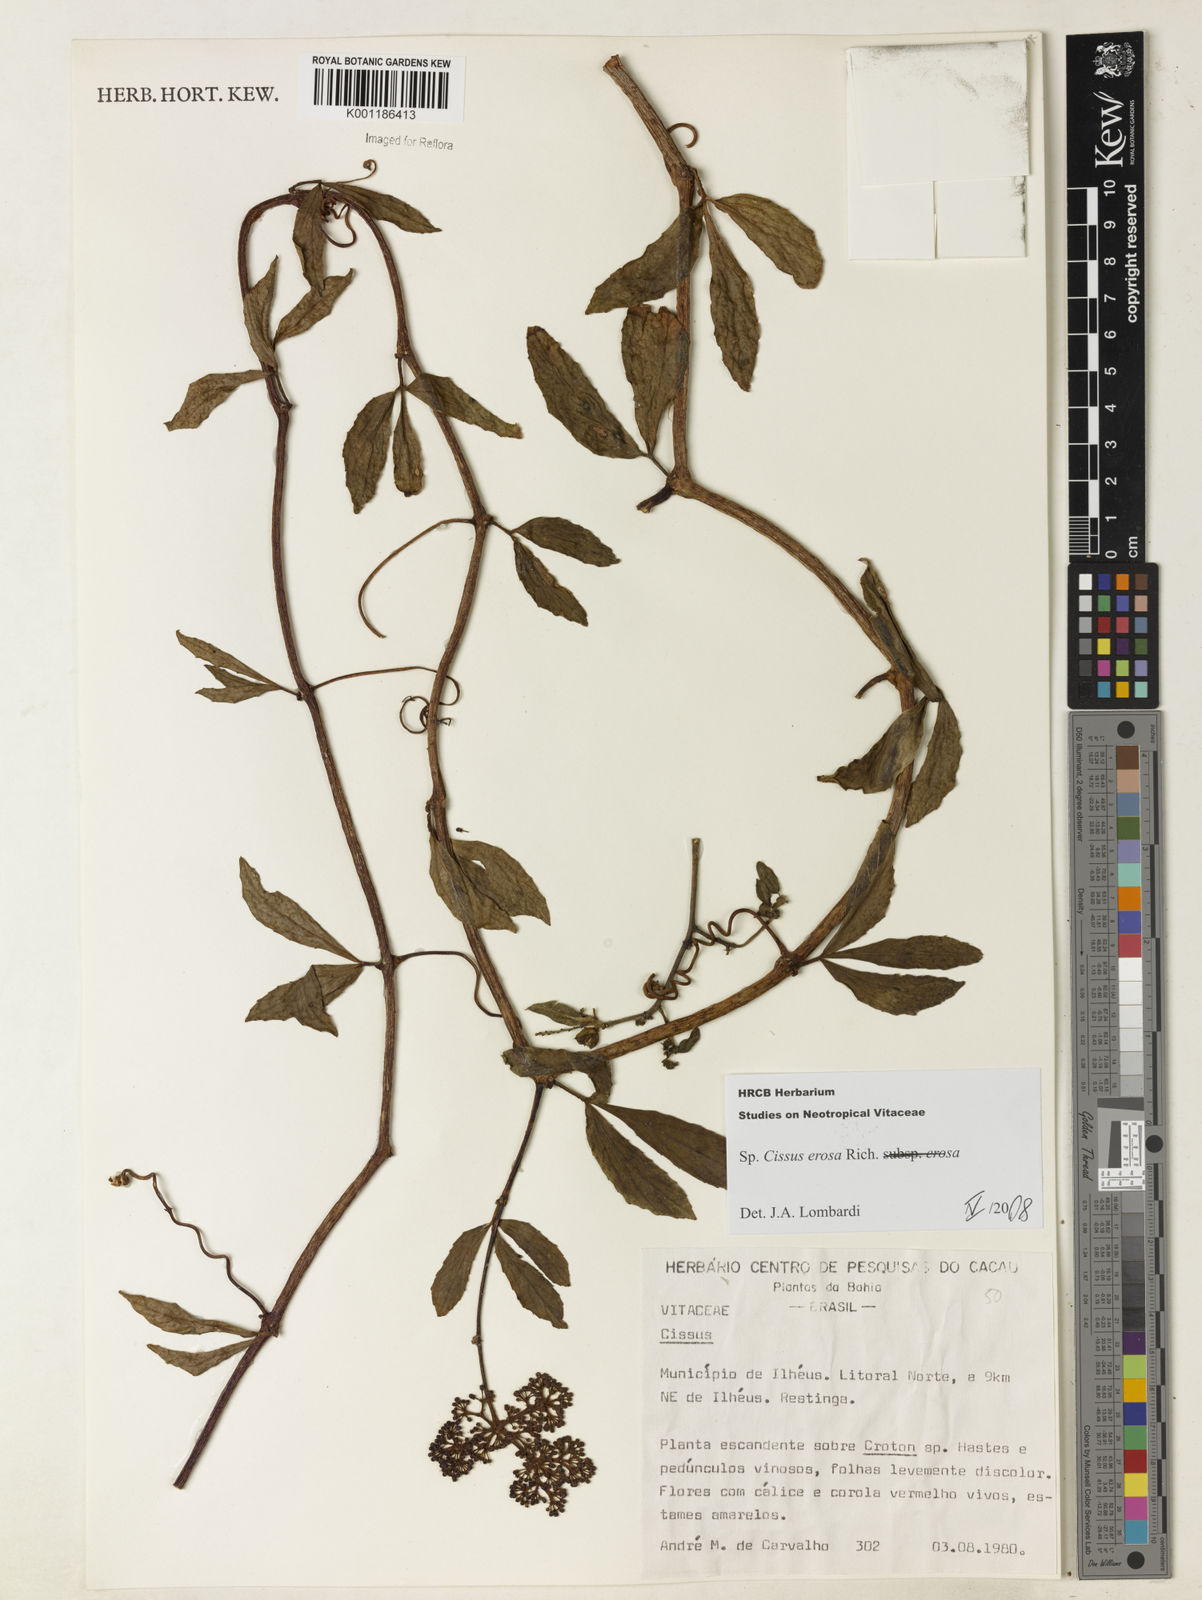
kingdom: Plantae
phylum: Tracheophyta
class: Magnoliopsida
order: Vitales
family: Vitaceae
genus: Cissus
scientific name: Cissus erosa
